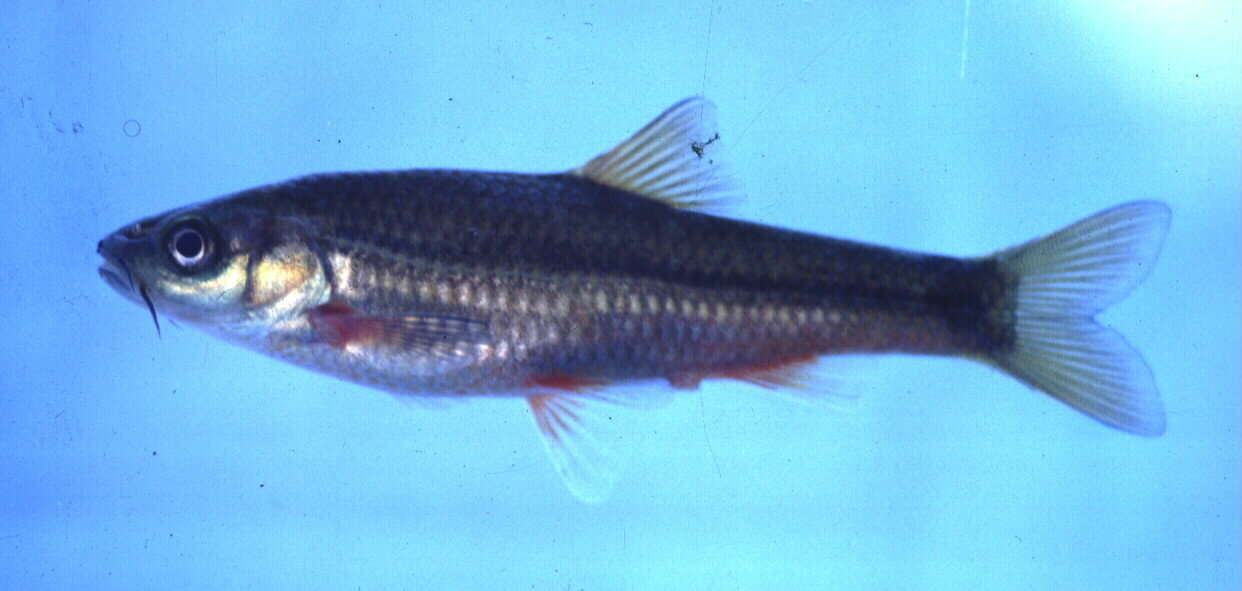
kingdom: Animalia
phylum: Chordata
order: Cypriniformes
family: Cyprinidae
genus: Pseudobarbus
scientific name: Pseudobarbus erubescens
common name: Twee river redfin
